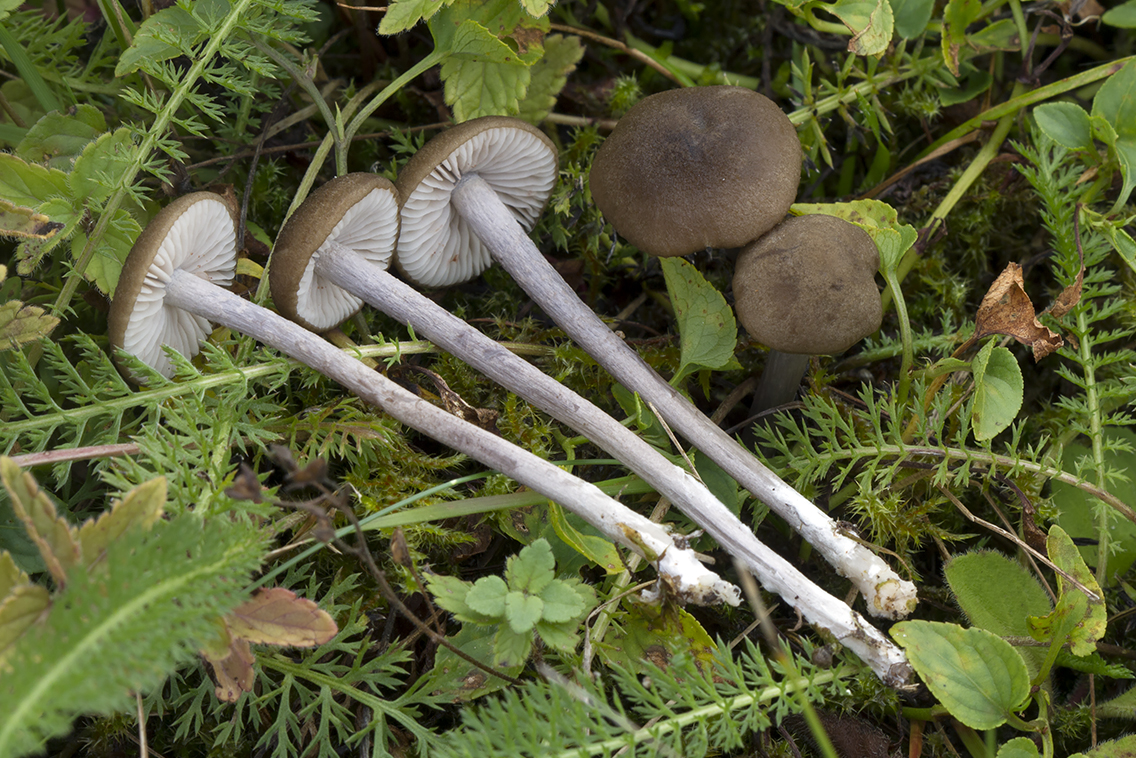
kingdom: Fungi
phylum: Basidiomycota
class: Agaricomycetes
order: Agaricales
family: Entolomataceae
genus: Entoloma
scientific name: Entoloma griseocyaneum
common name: gråblå rødblad
